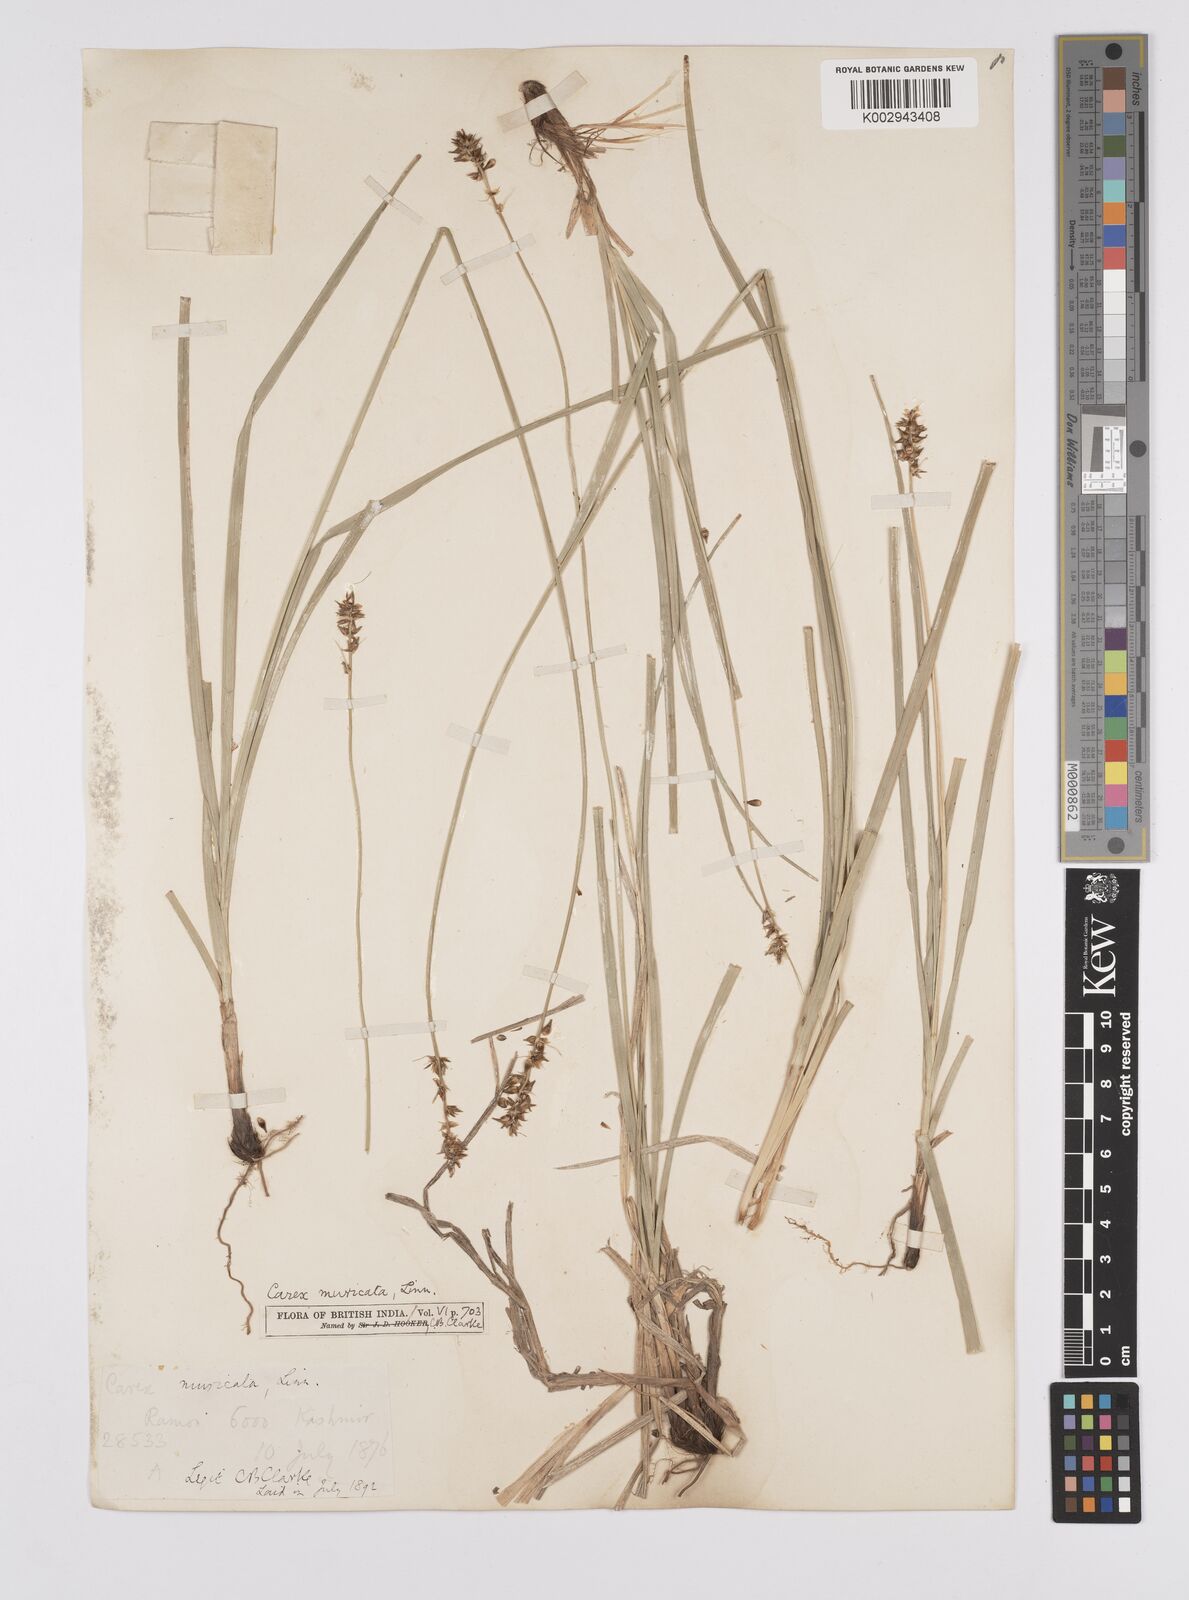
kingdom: Plantae
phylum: Tracheophyta
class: Liliopsida
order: Poales
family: Cyperaceae
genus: Carex
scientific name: Carex polyphylla
